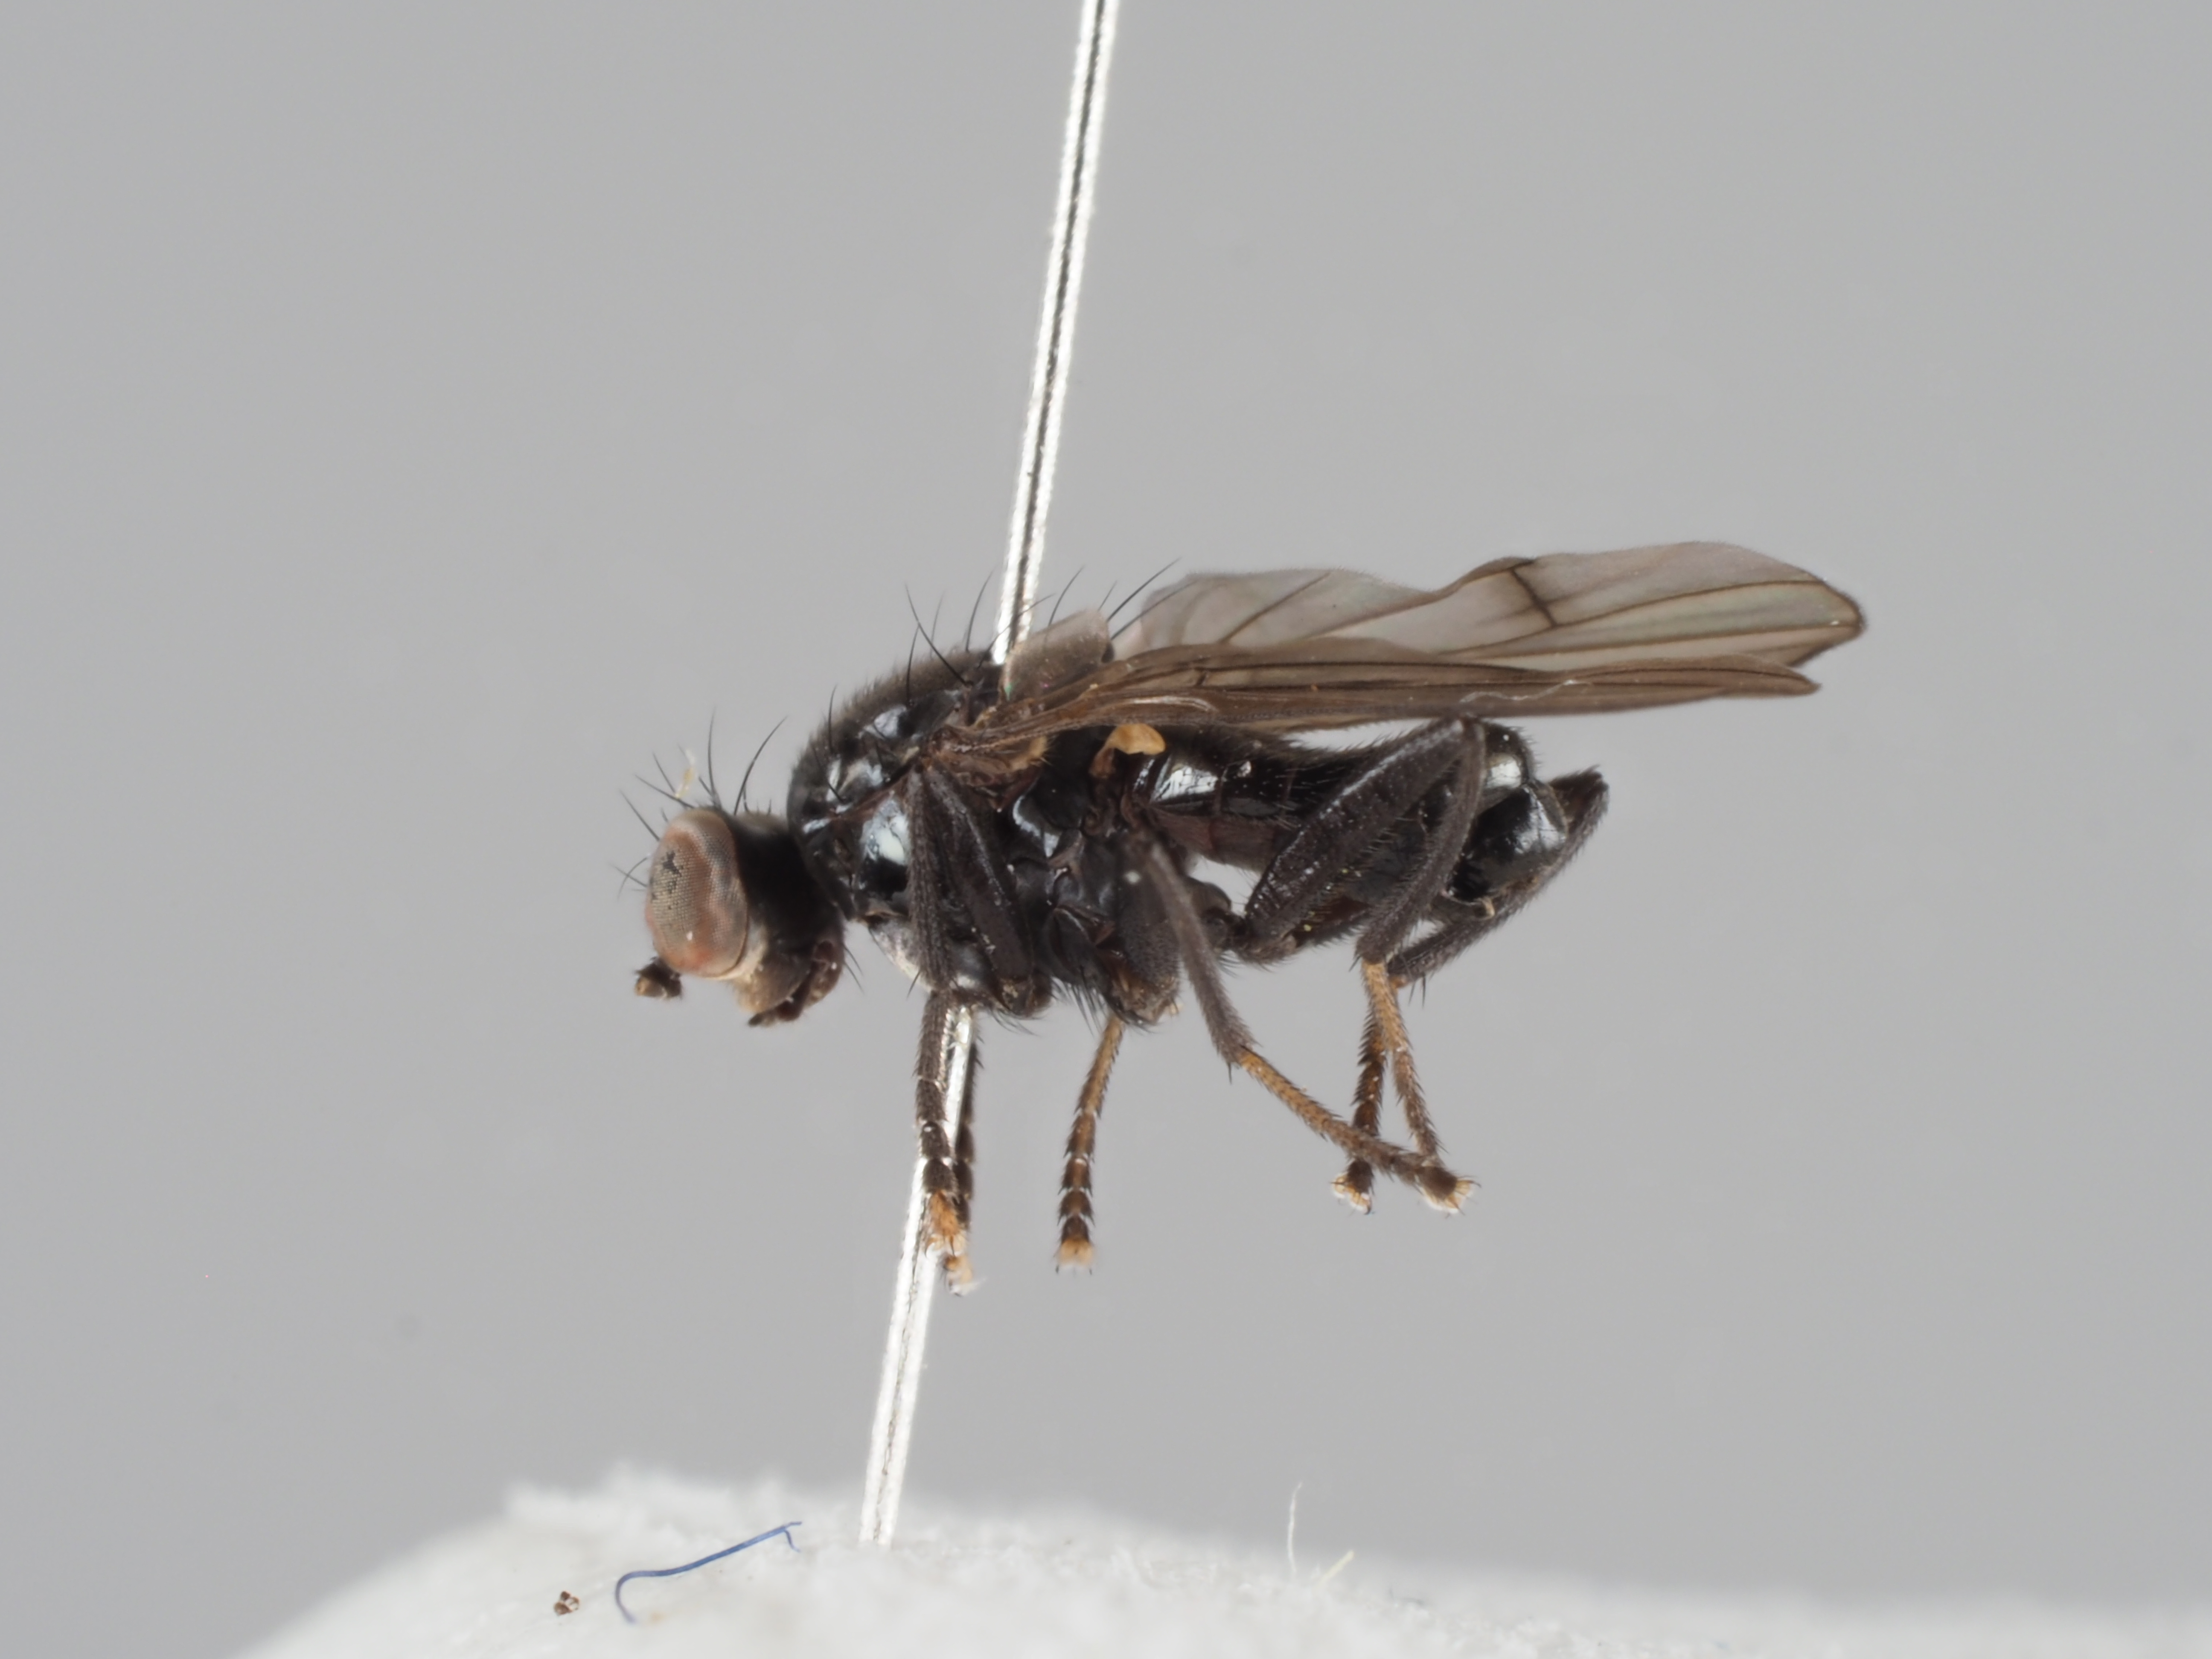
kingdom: Animalia
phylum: Arthropoda
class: Insecta
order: Diptera
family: Sciomyzidae
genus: Anticheta
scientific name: Anticheta nigra
